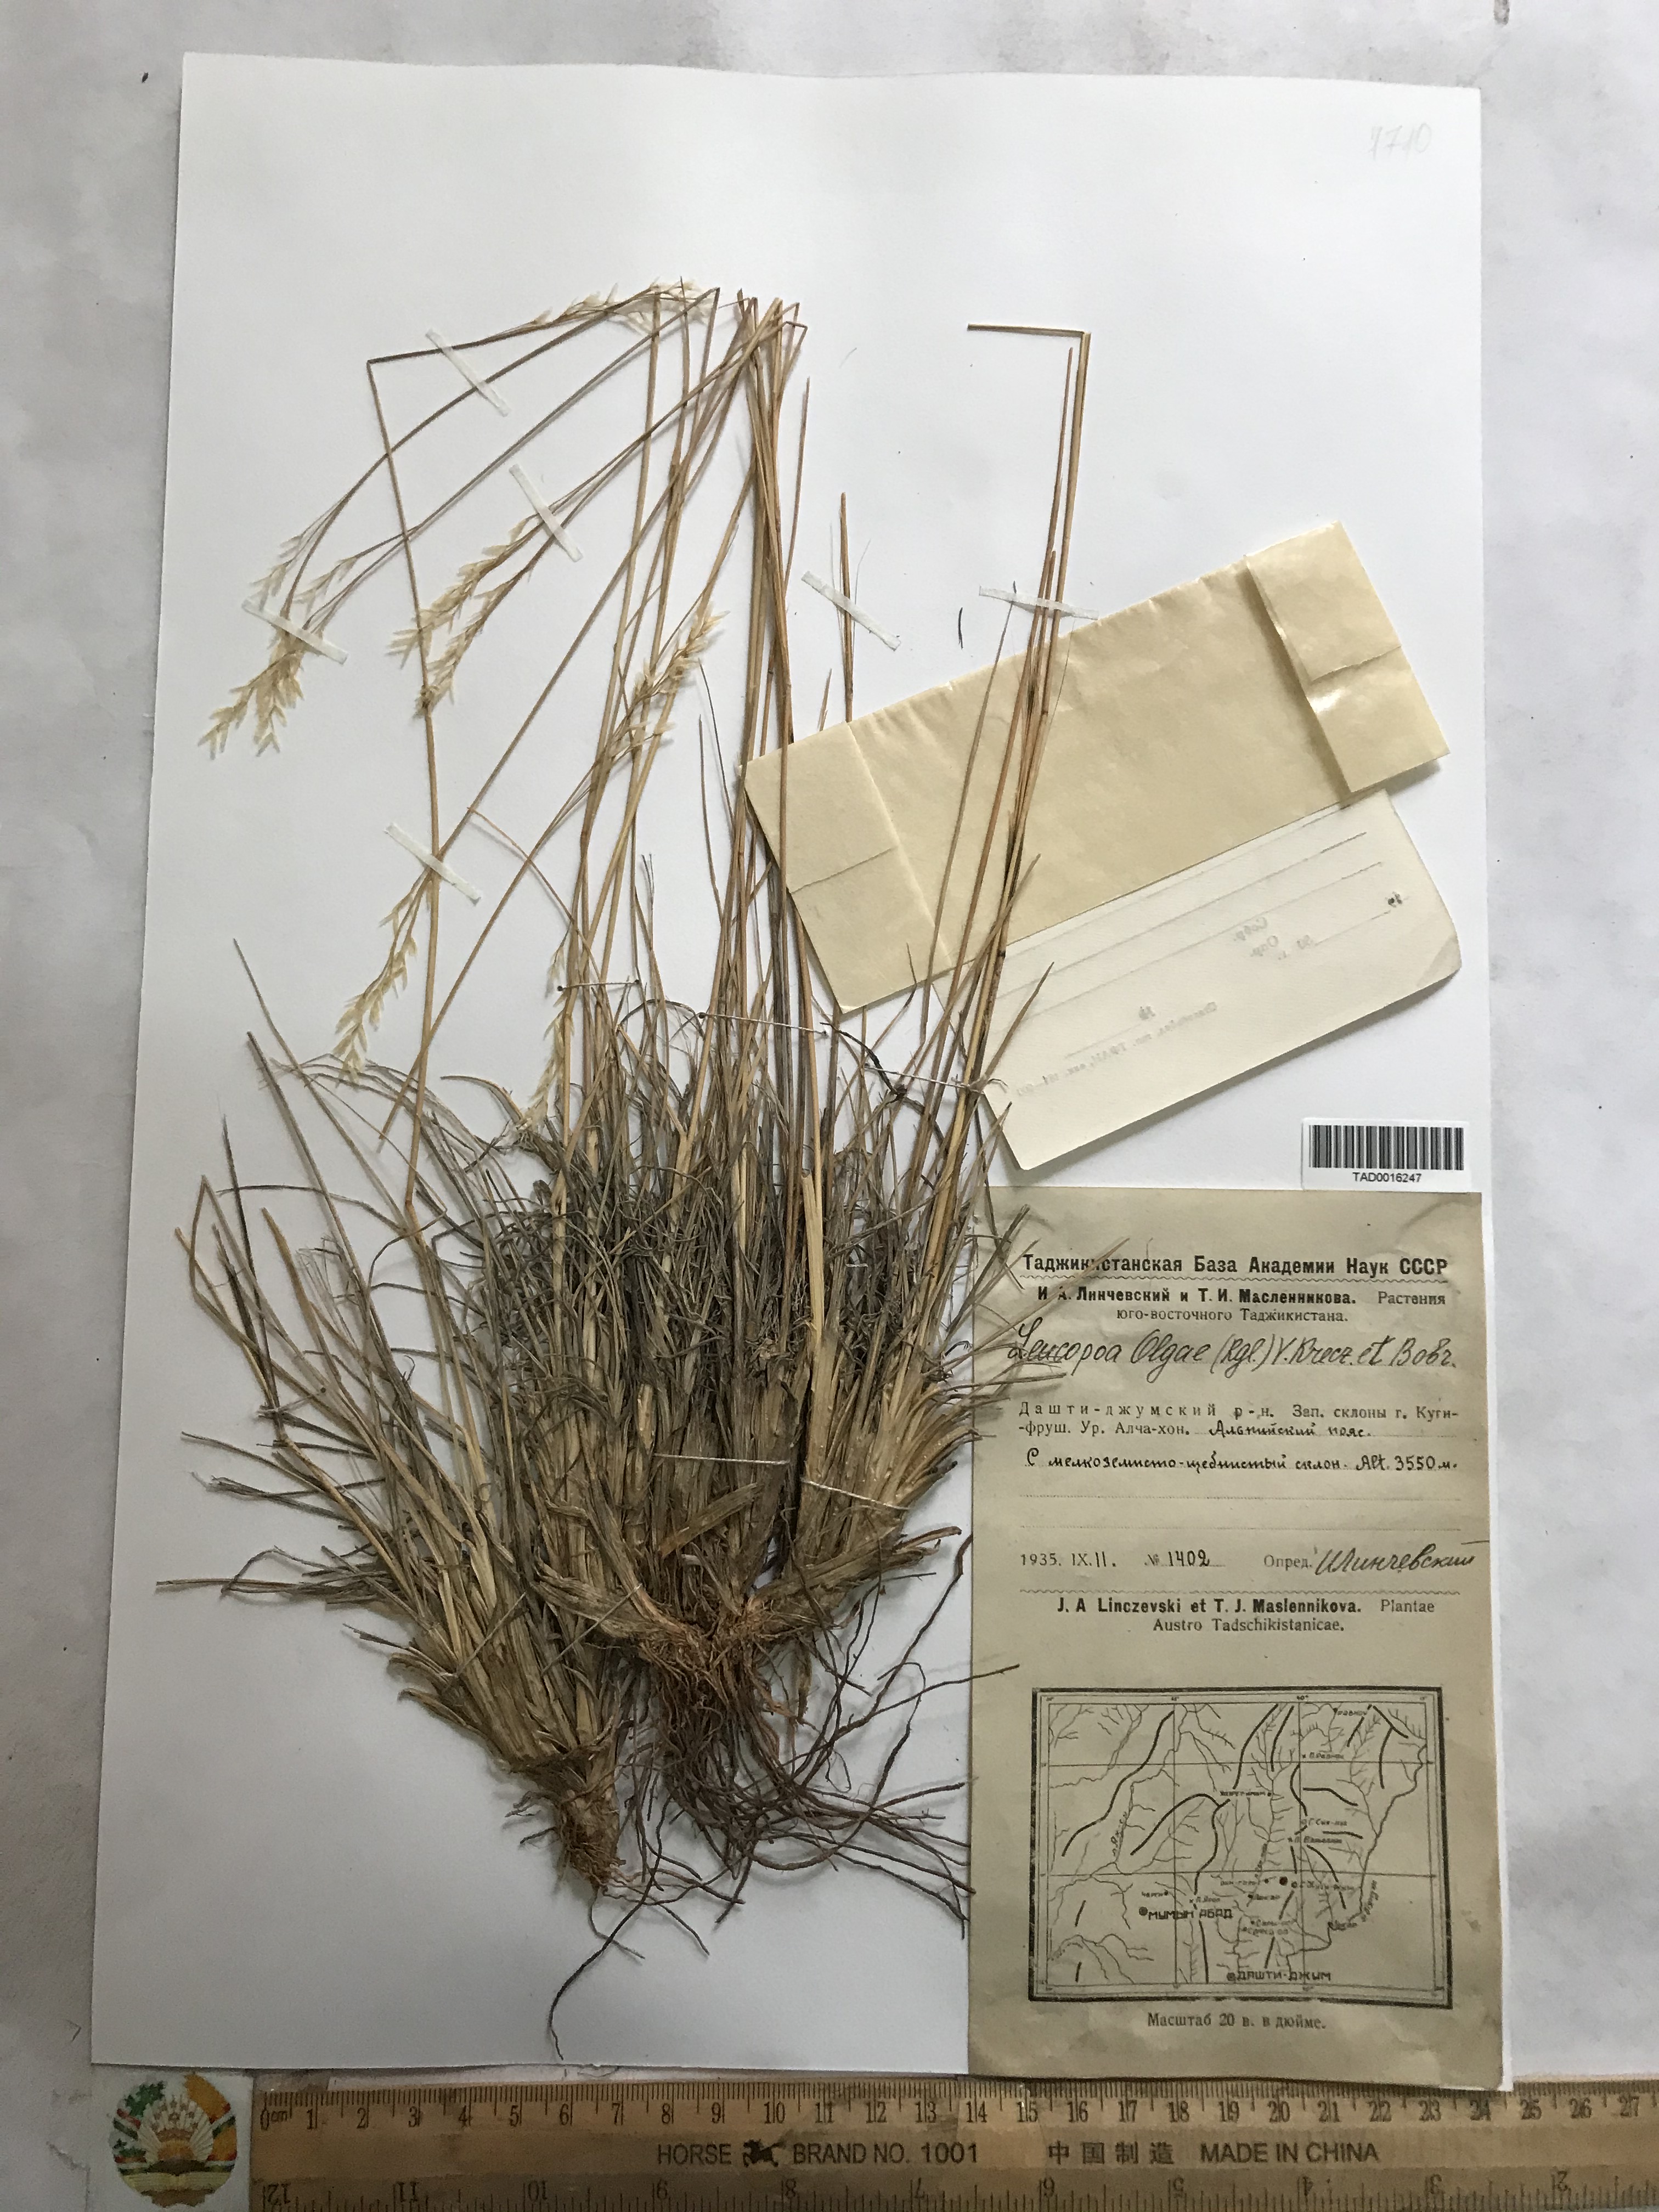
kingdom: Plantae
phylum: Tracheophyta
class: Liliopsida
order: Poales
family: Poaceae
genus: Festuca
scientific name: Festuca
